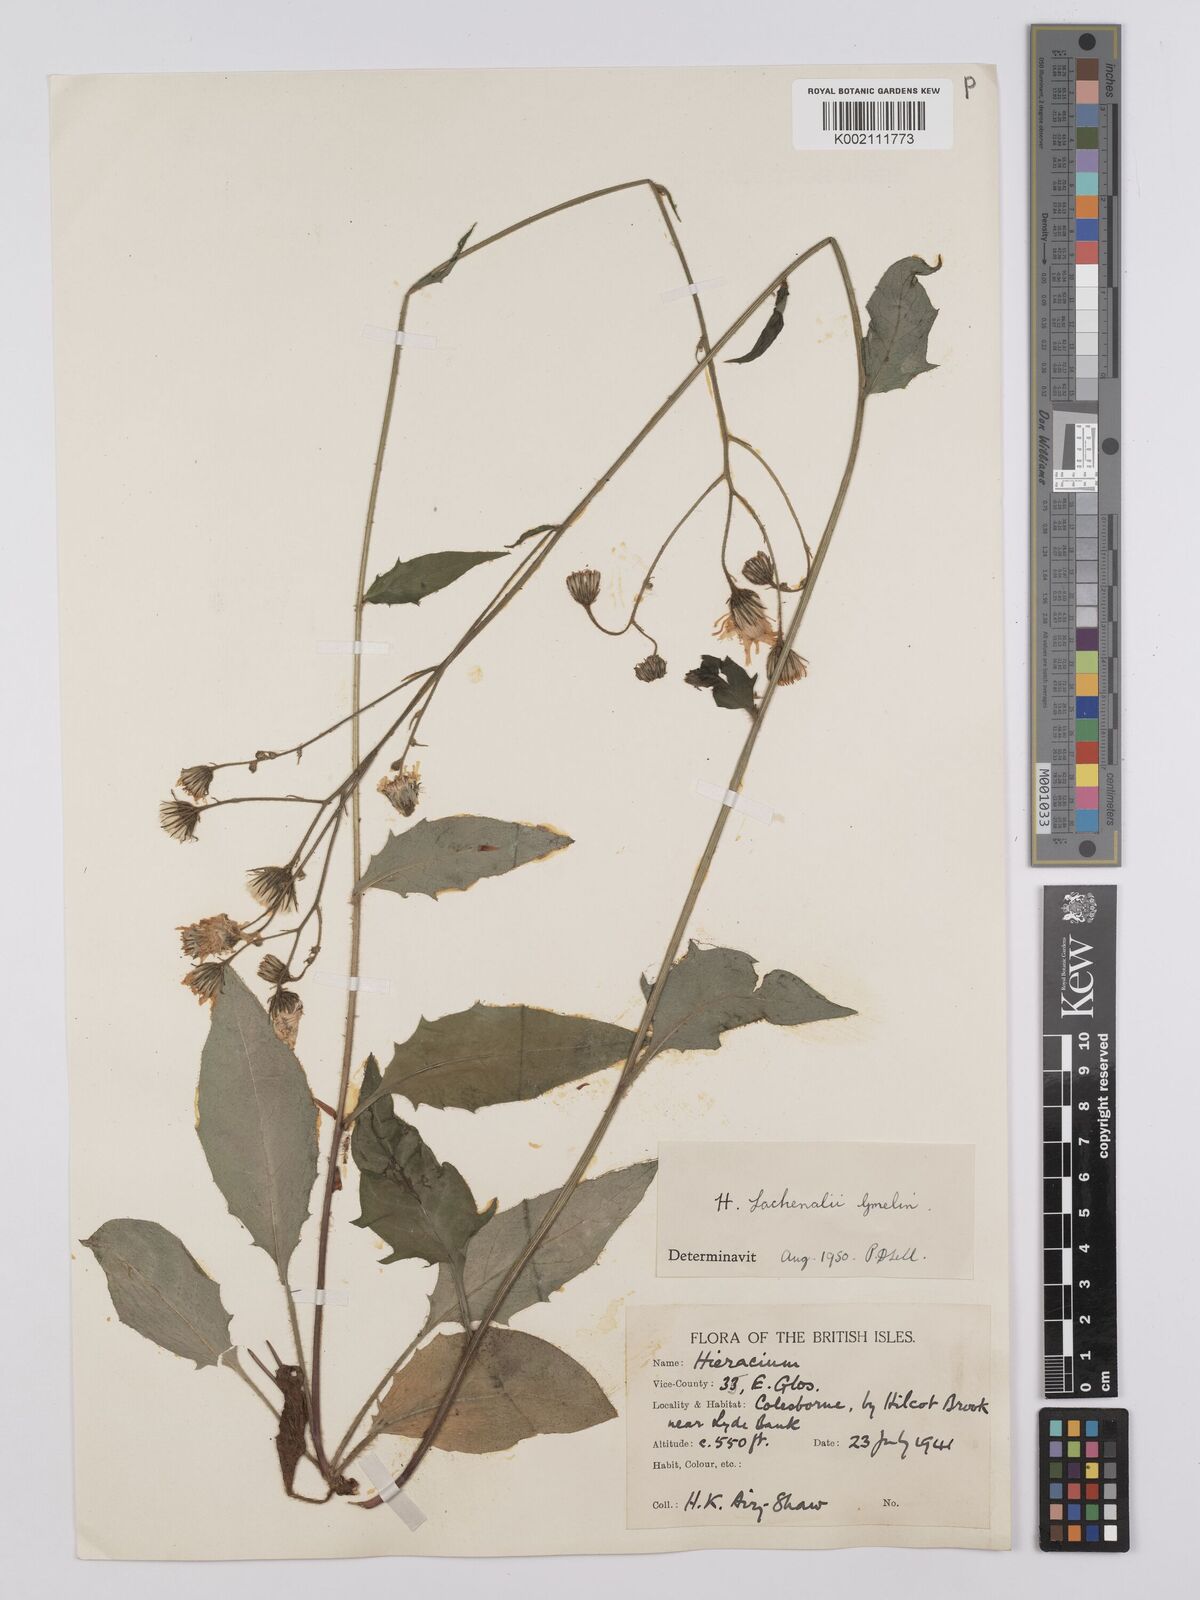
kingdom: Plantae
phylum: Tracheophyta
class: Magnoliopsida
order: Asterales
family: Asteraceae
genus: Hieracium
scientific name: Hieracium lachenalii
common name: Common hawkweed
